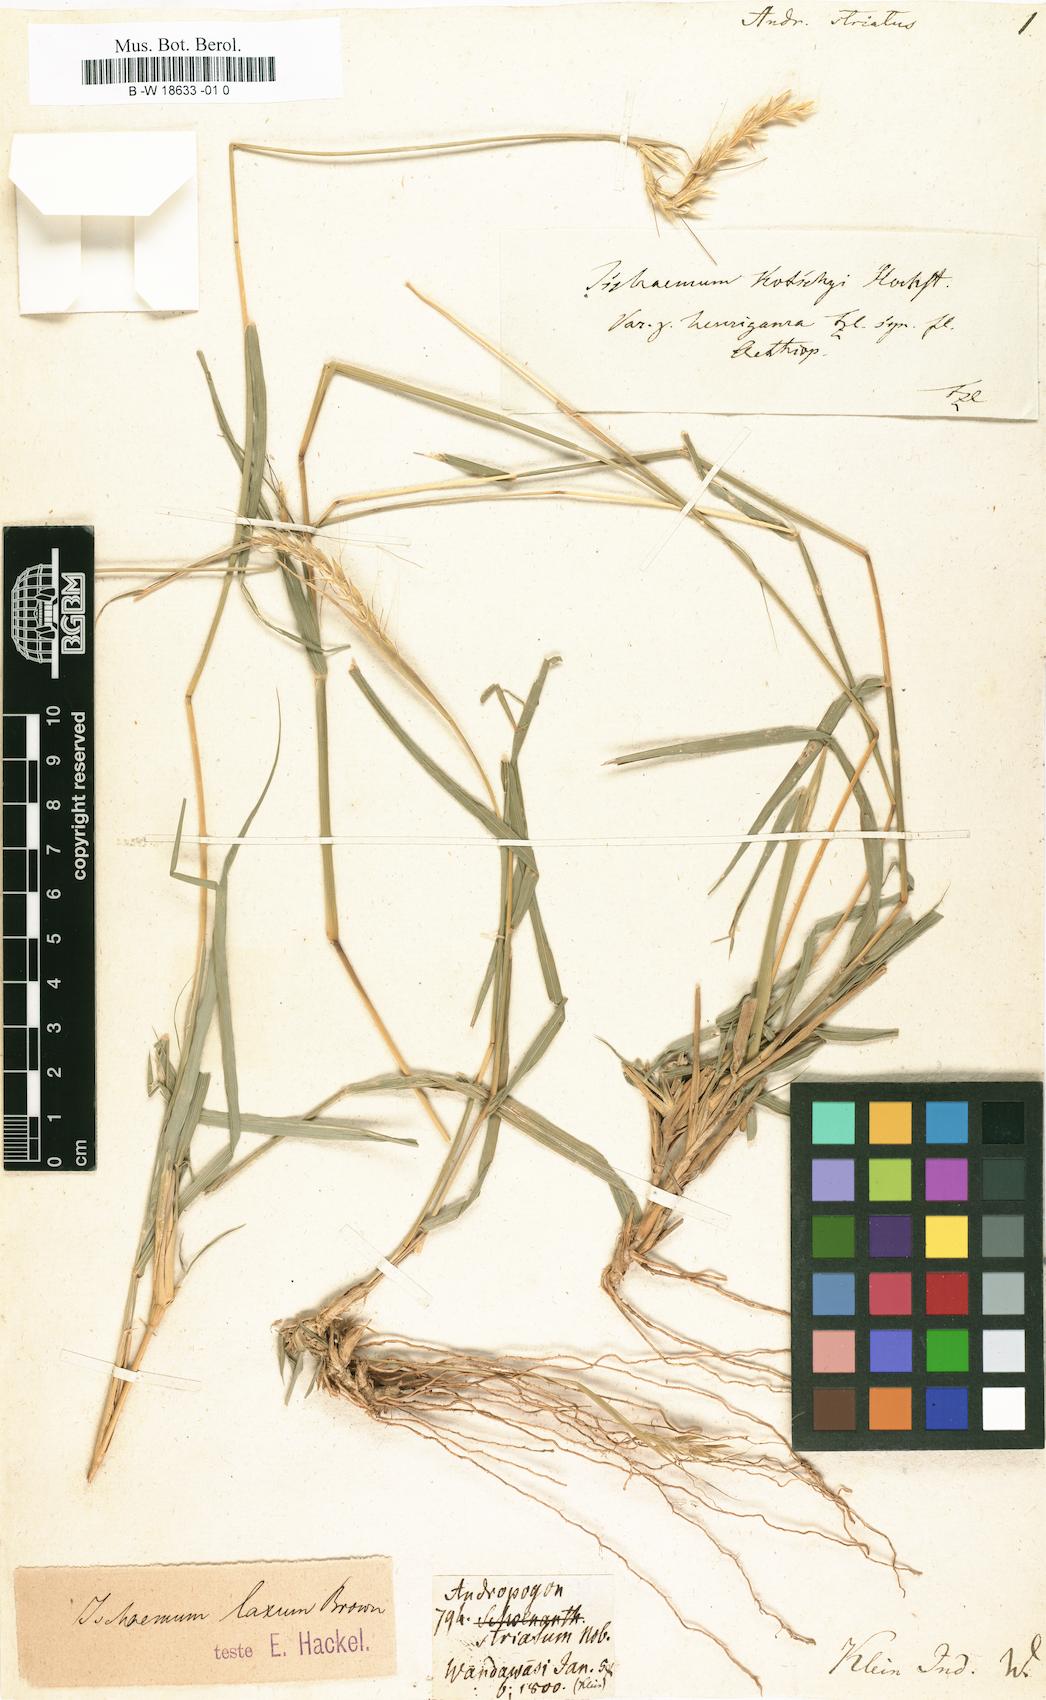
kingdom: Plantae
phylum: Tracheophyta
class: Liliopsida
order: Poales
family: Poaceae
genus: Sehima
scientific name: Sehima nervosa
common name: Rat-tail grass
